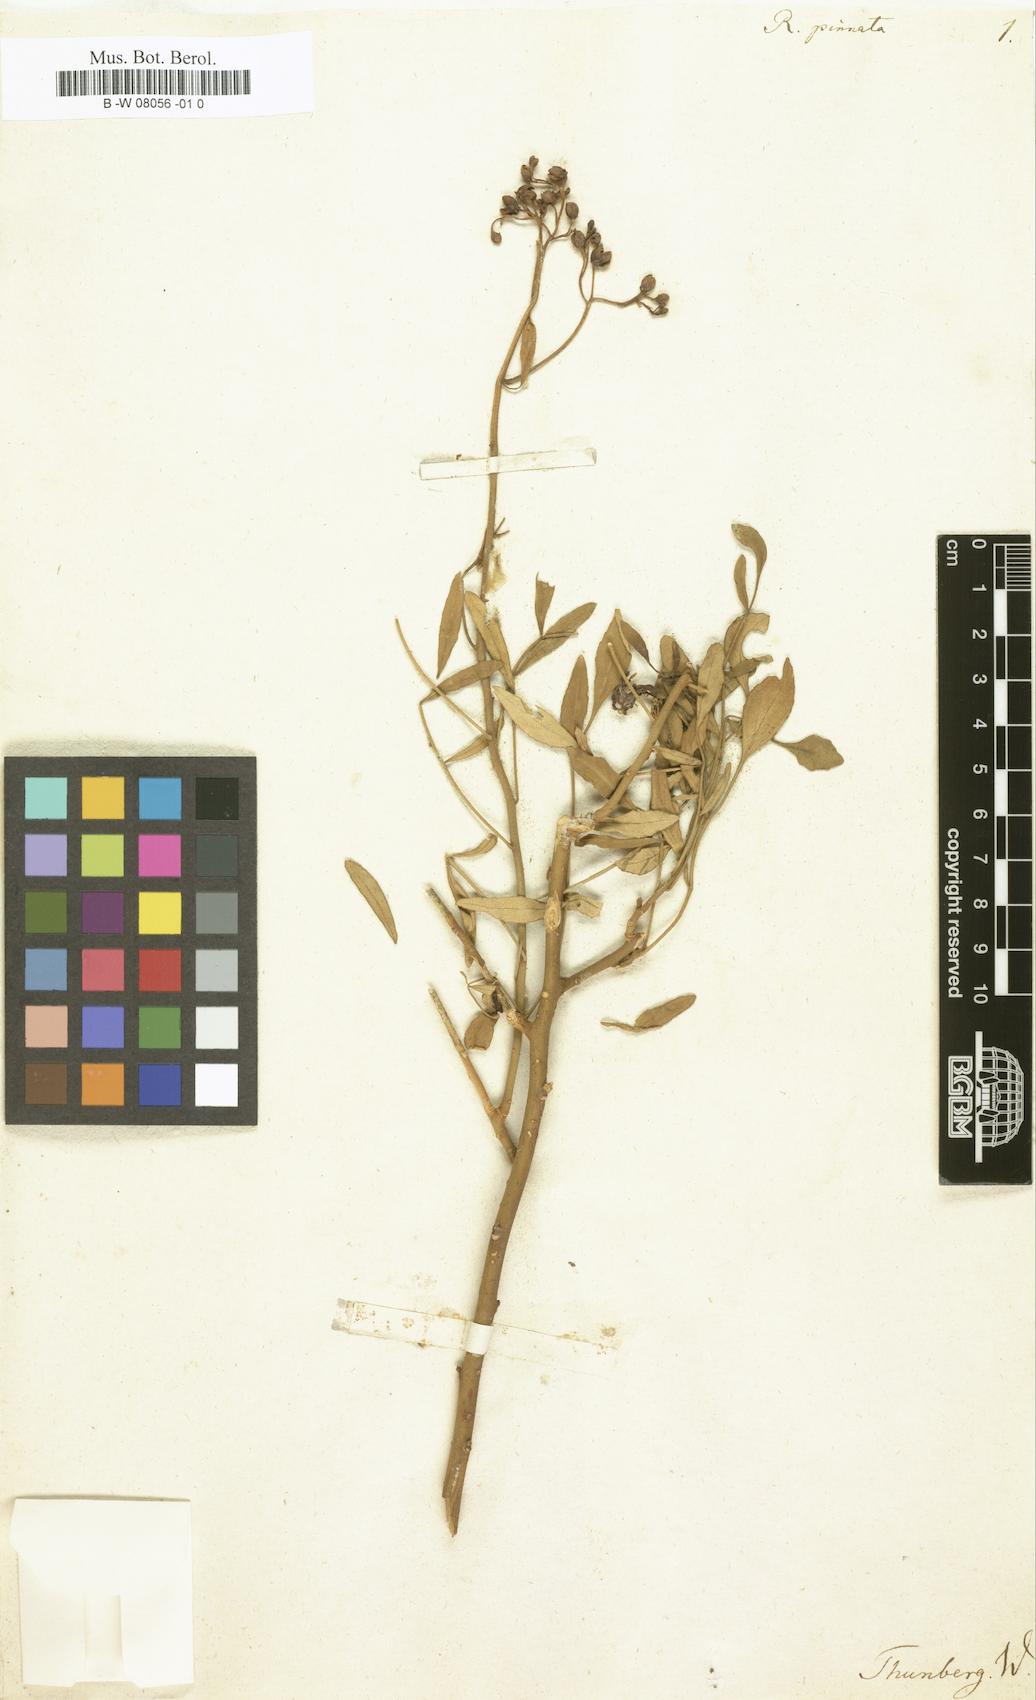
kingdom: Plantae
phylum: Tracheophyta
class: Magnoliopsida
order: Sapindales
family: Rutaceae
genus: Ruta
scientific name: Ruta pinnata
